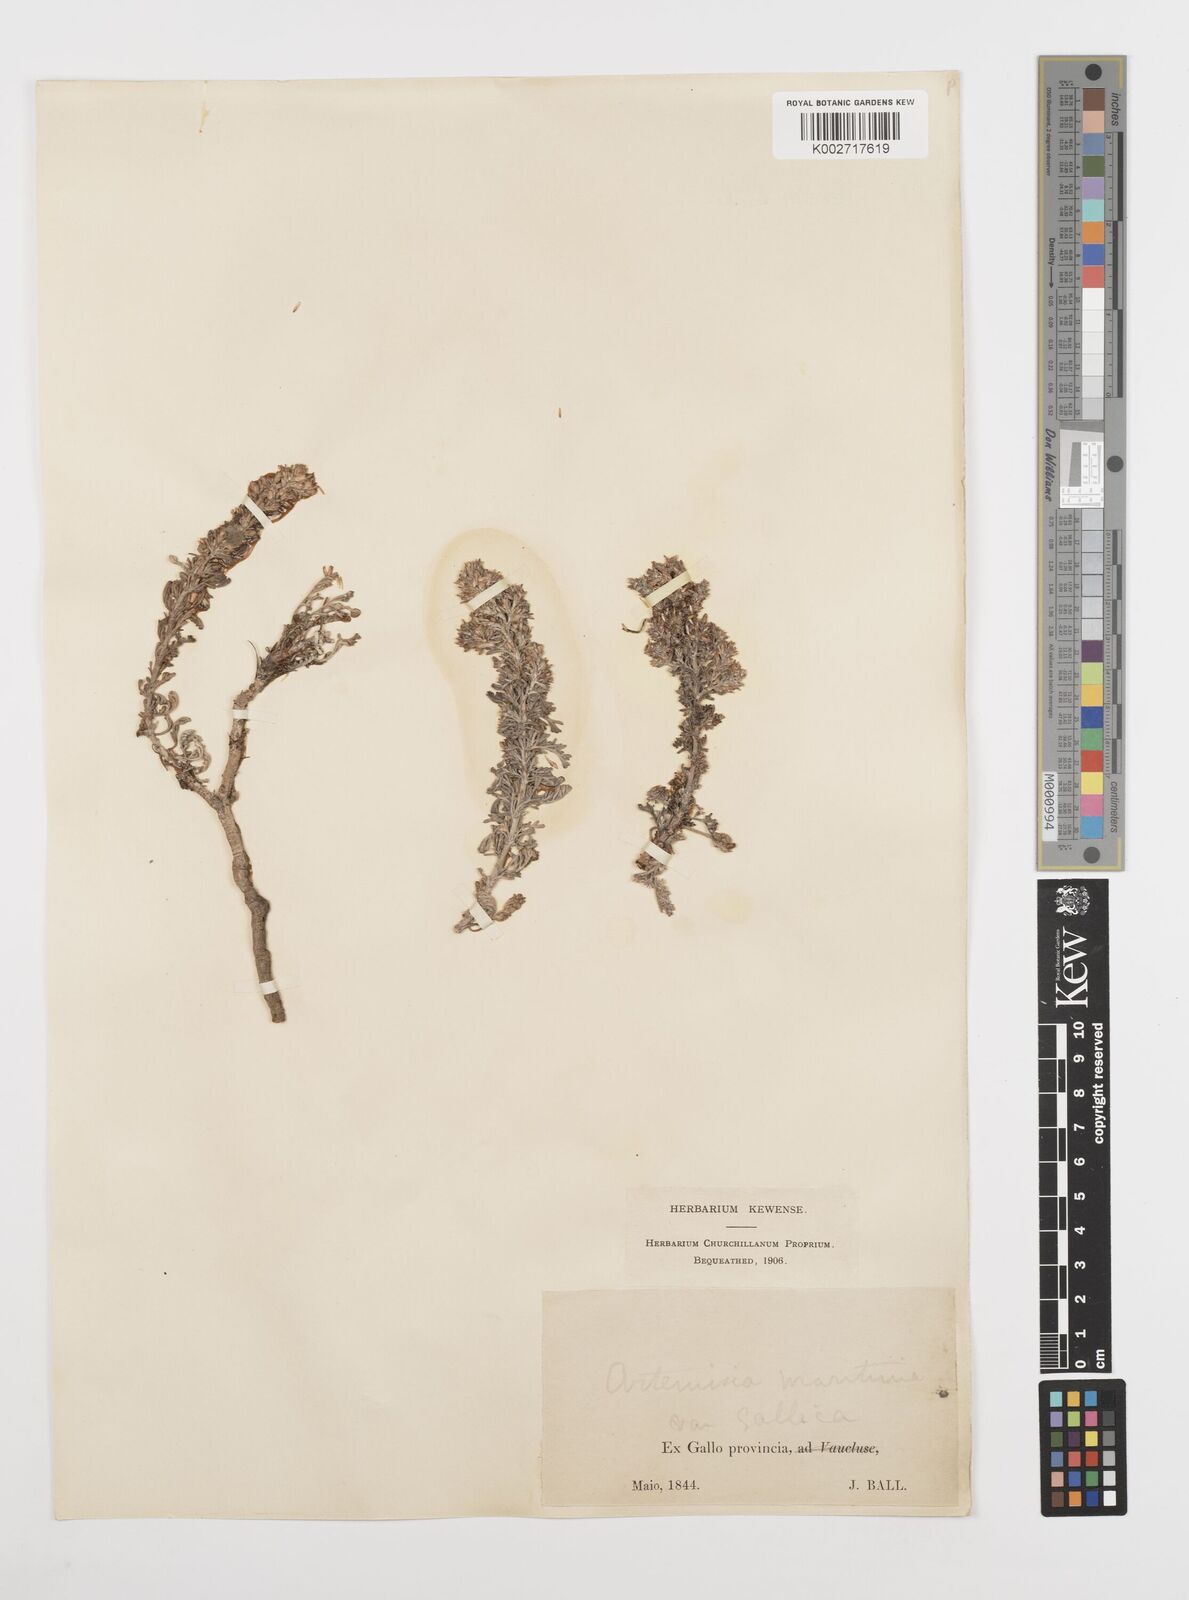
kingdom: Plantae
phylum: Tracheophyta
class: Magnoliopsida
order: Asterales
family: Asteraceae
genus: Artemisia
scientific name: Artemisia campestris
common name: Field wormwood
